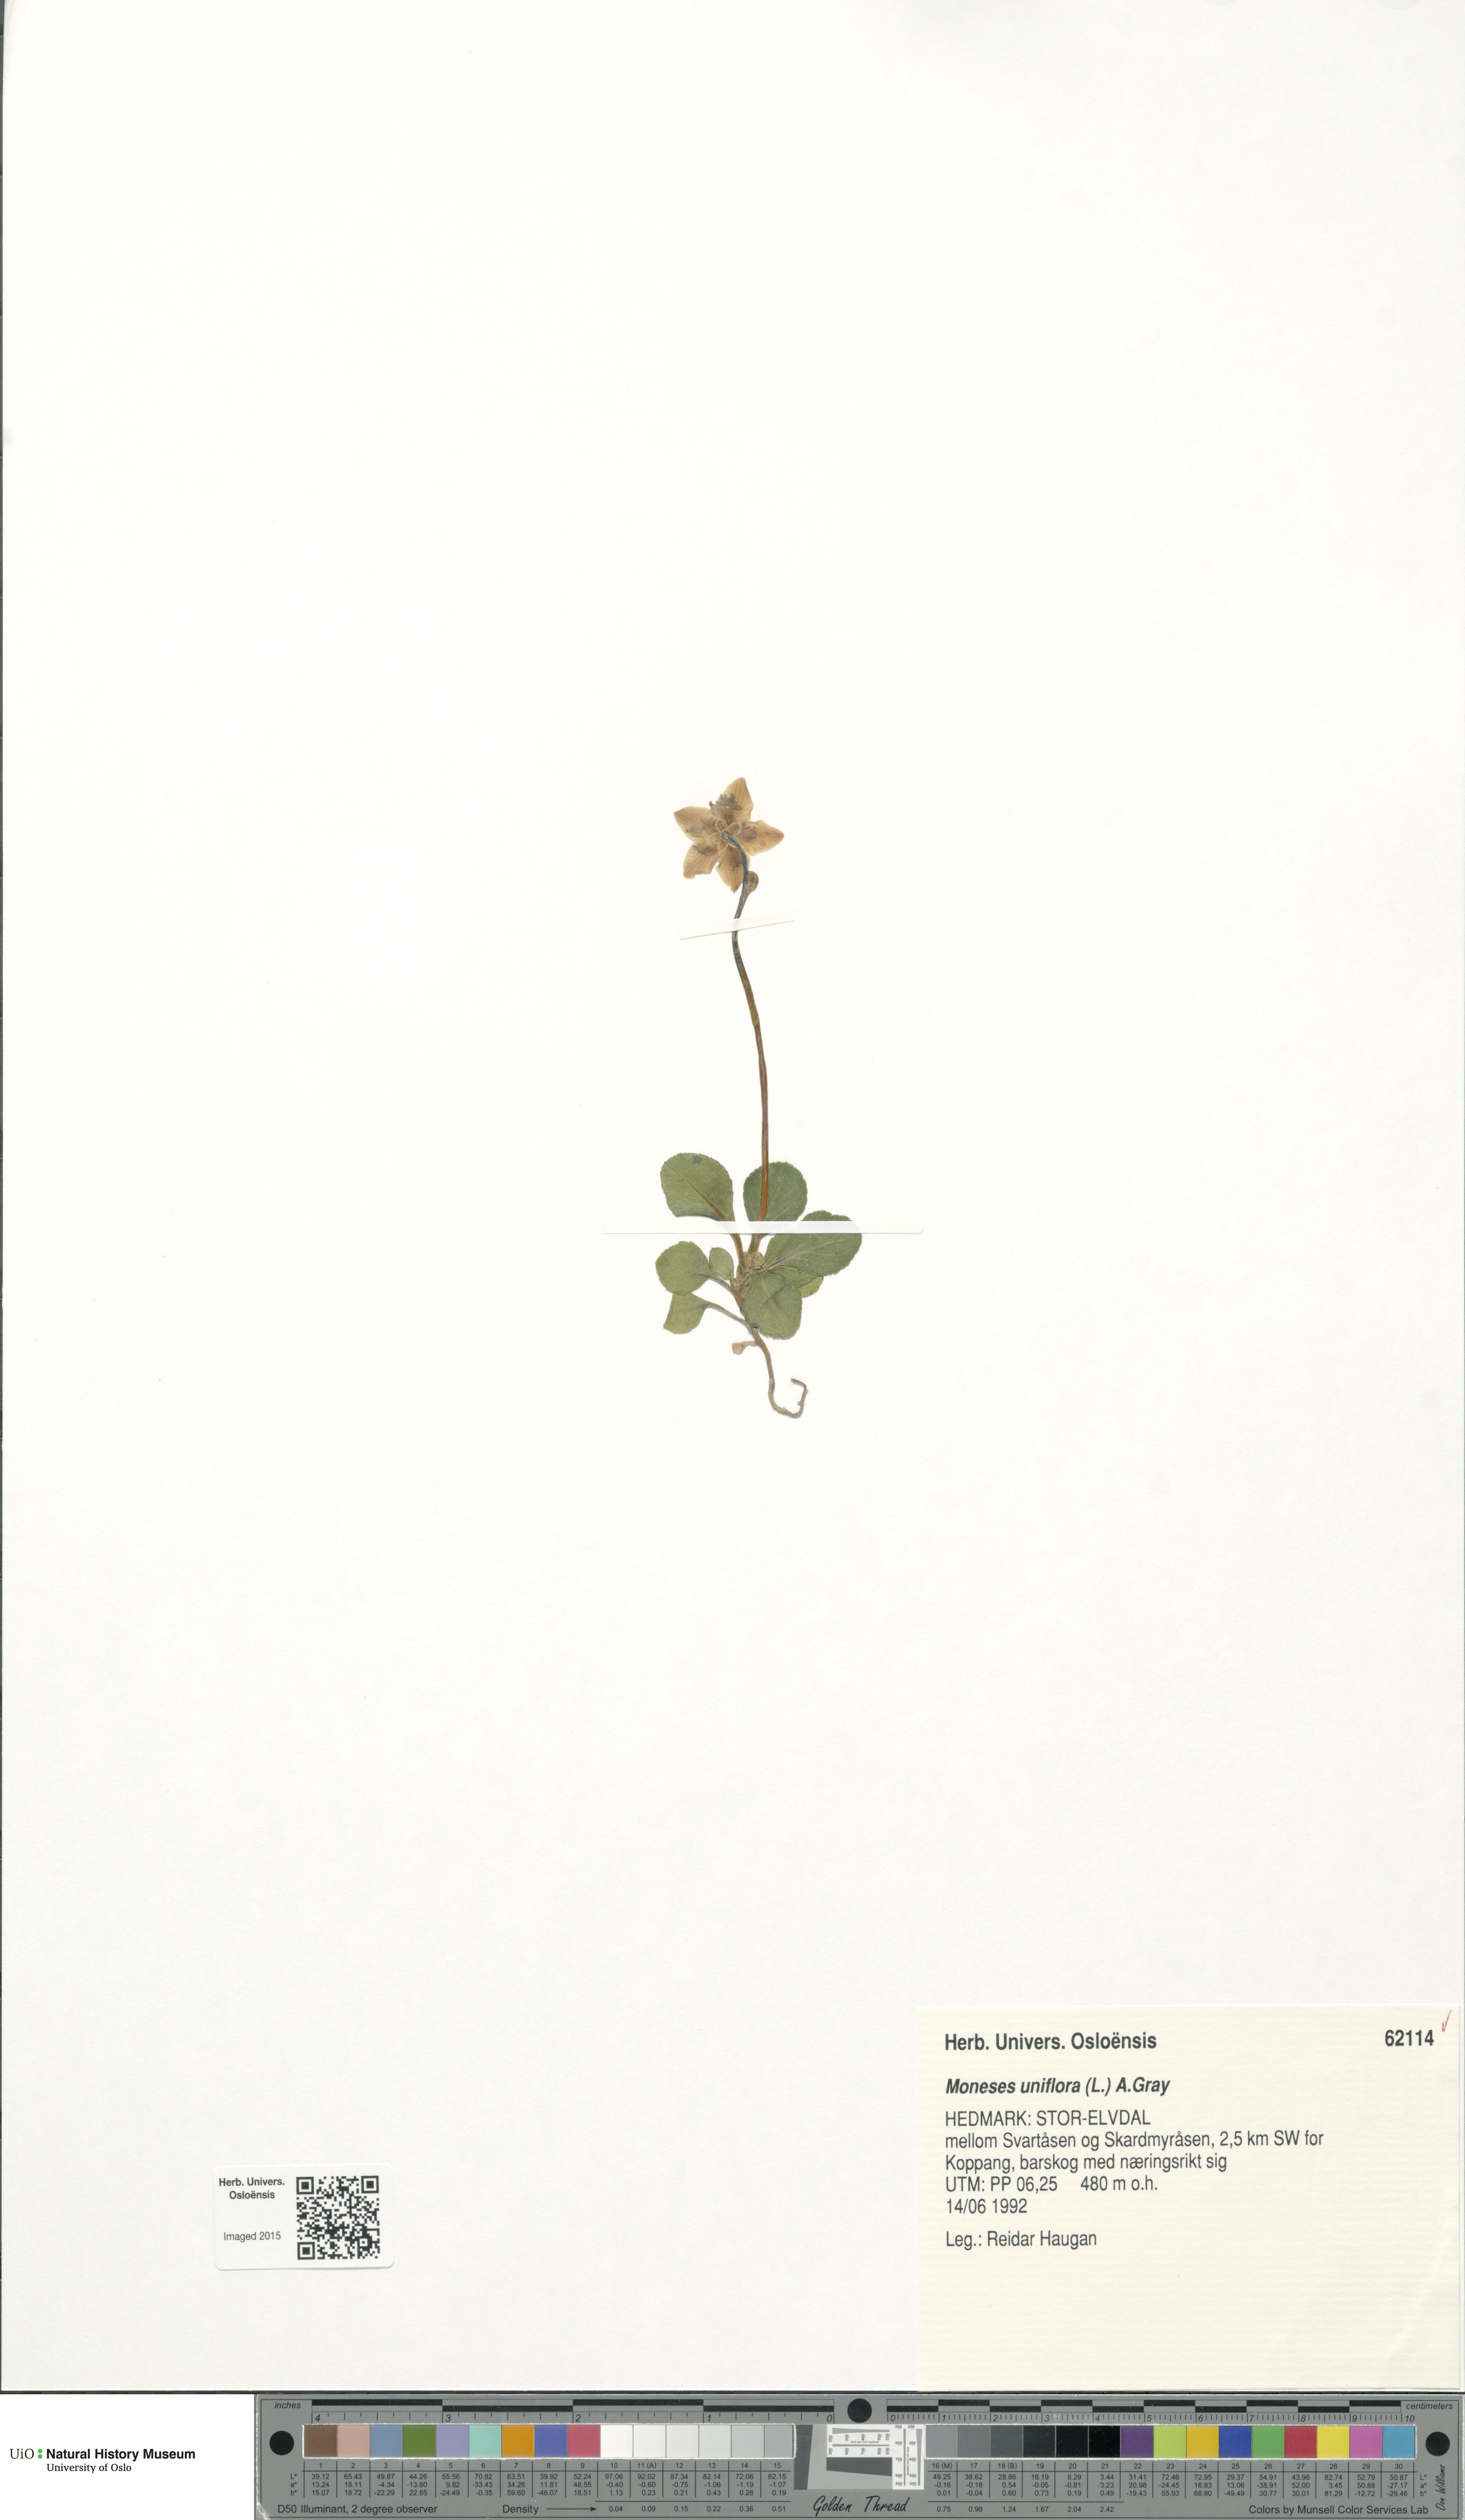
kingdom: Plantae
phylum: Tracheophyta
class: Magnoliopsida
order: Ericales
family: Ericaceae
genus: Moneses
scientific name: Moneses uniflora
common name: One-flowered wintergreen
